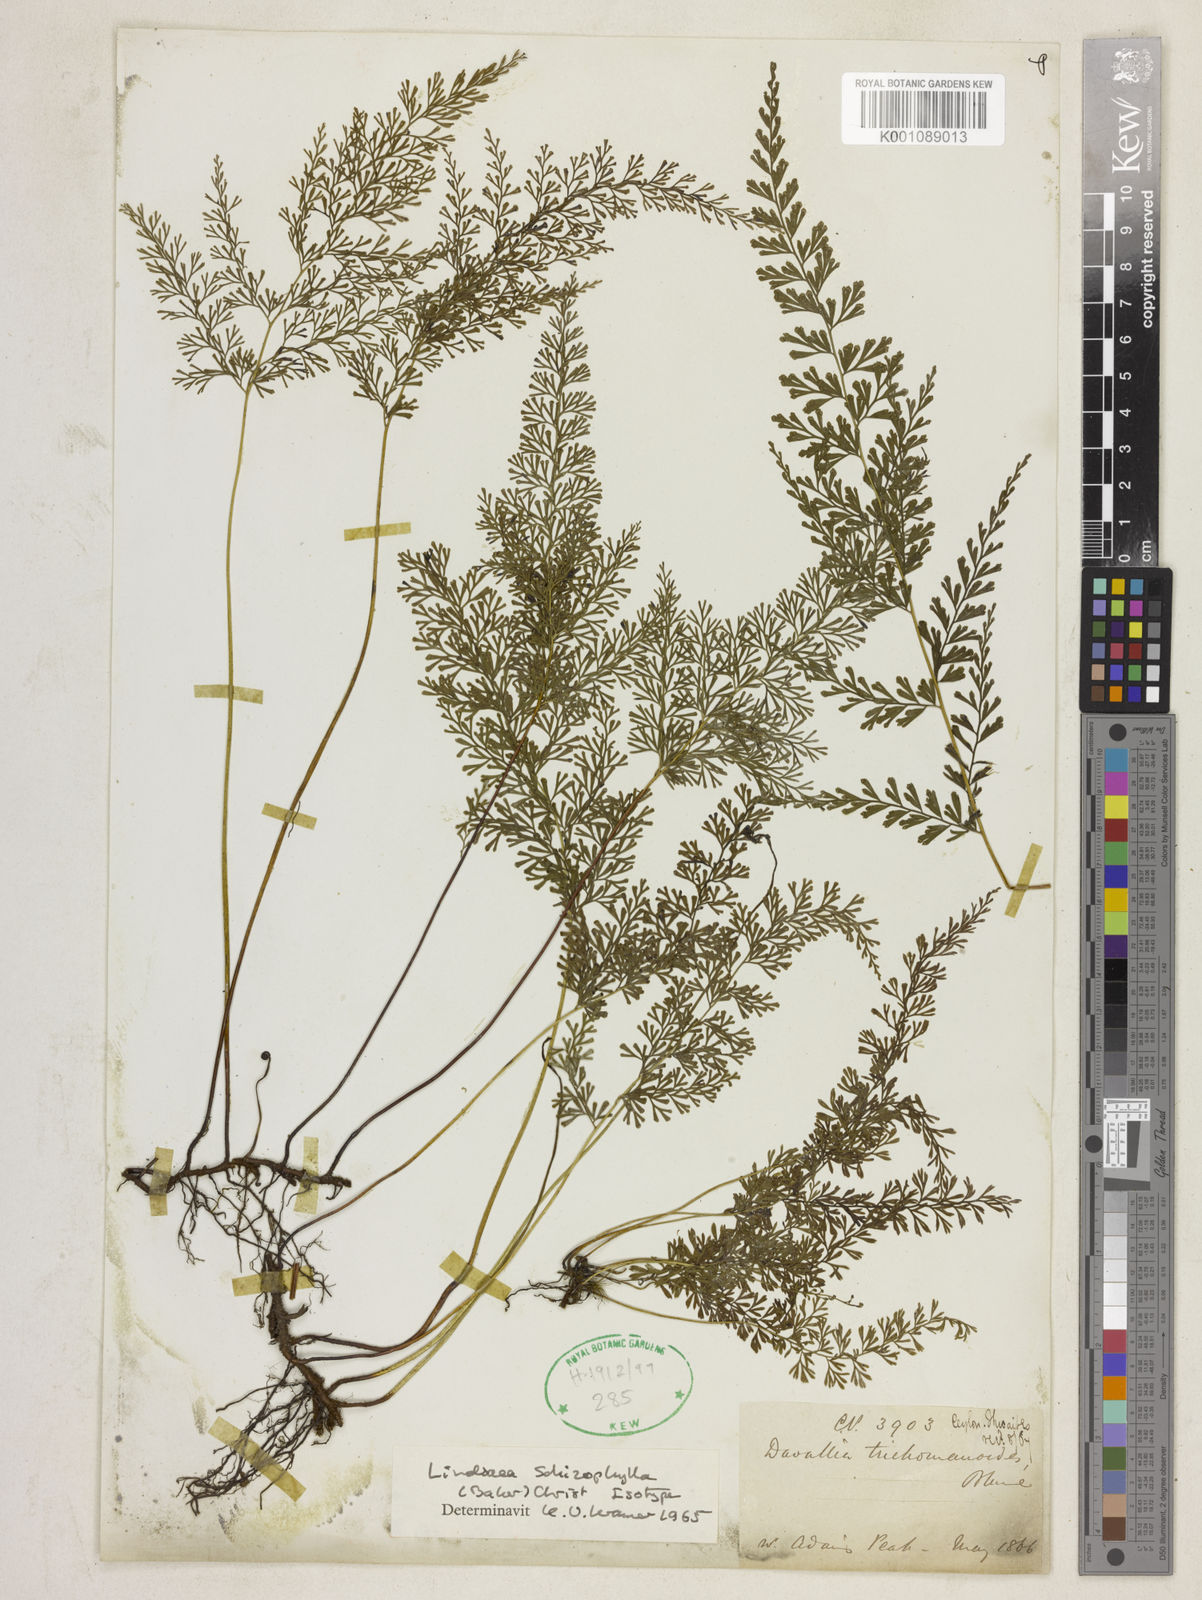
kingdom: Plantae
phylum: Tracheophyta
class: Polypodiopsida
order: Polypodiales
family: Lindsaeaceae
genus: Lindsaea
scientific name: Lindsaea schizophylla
